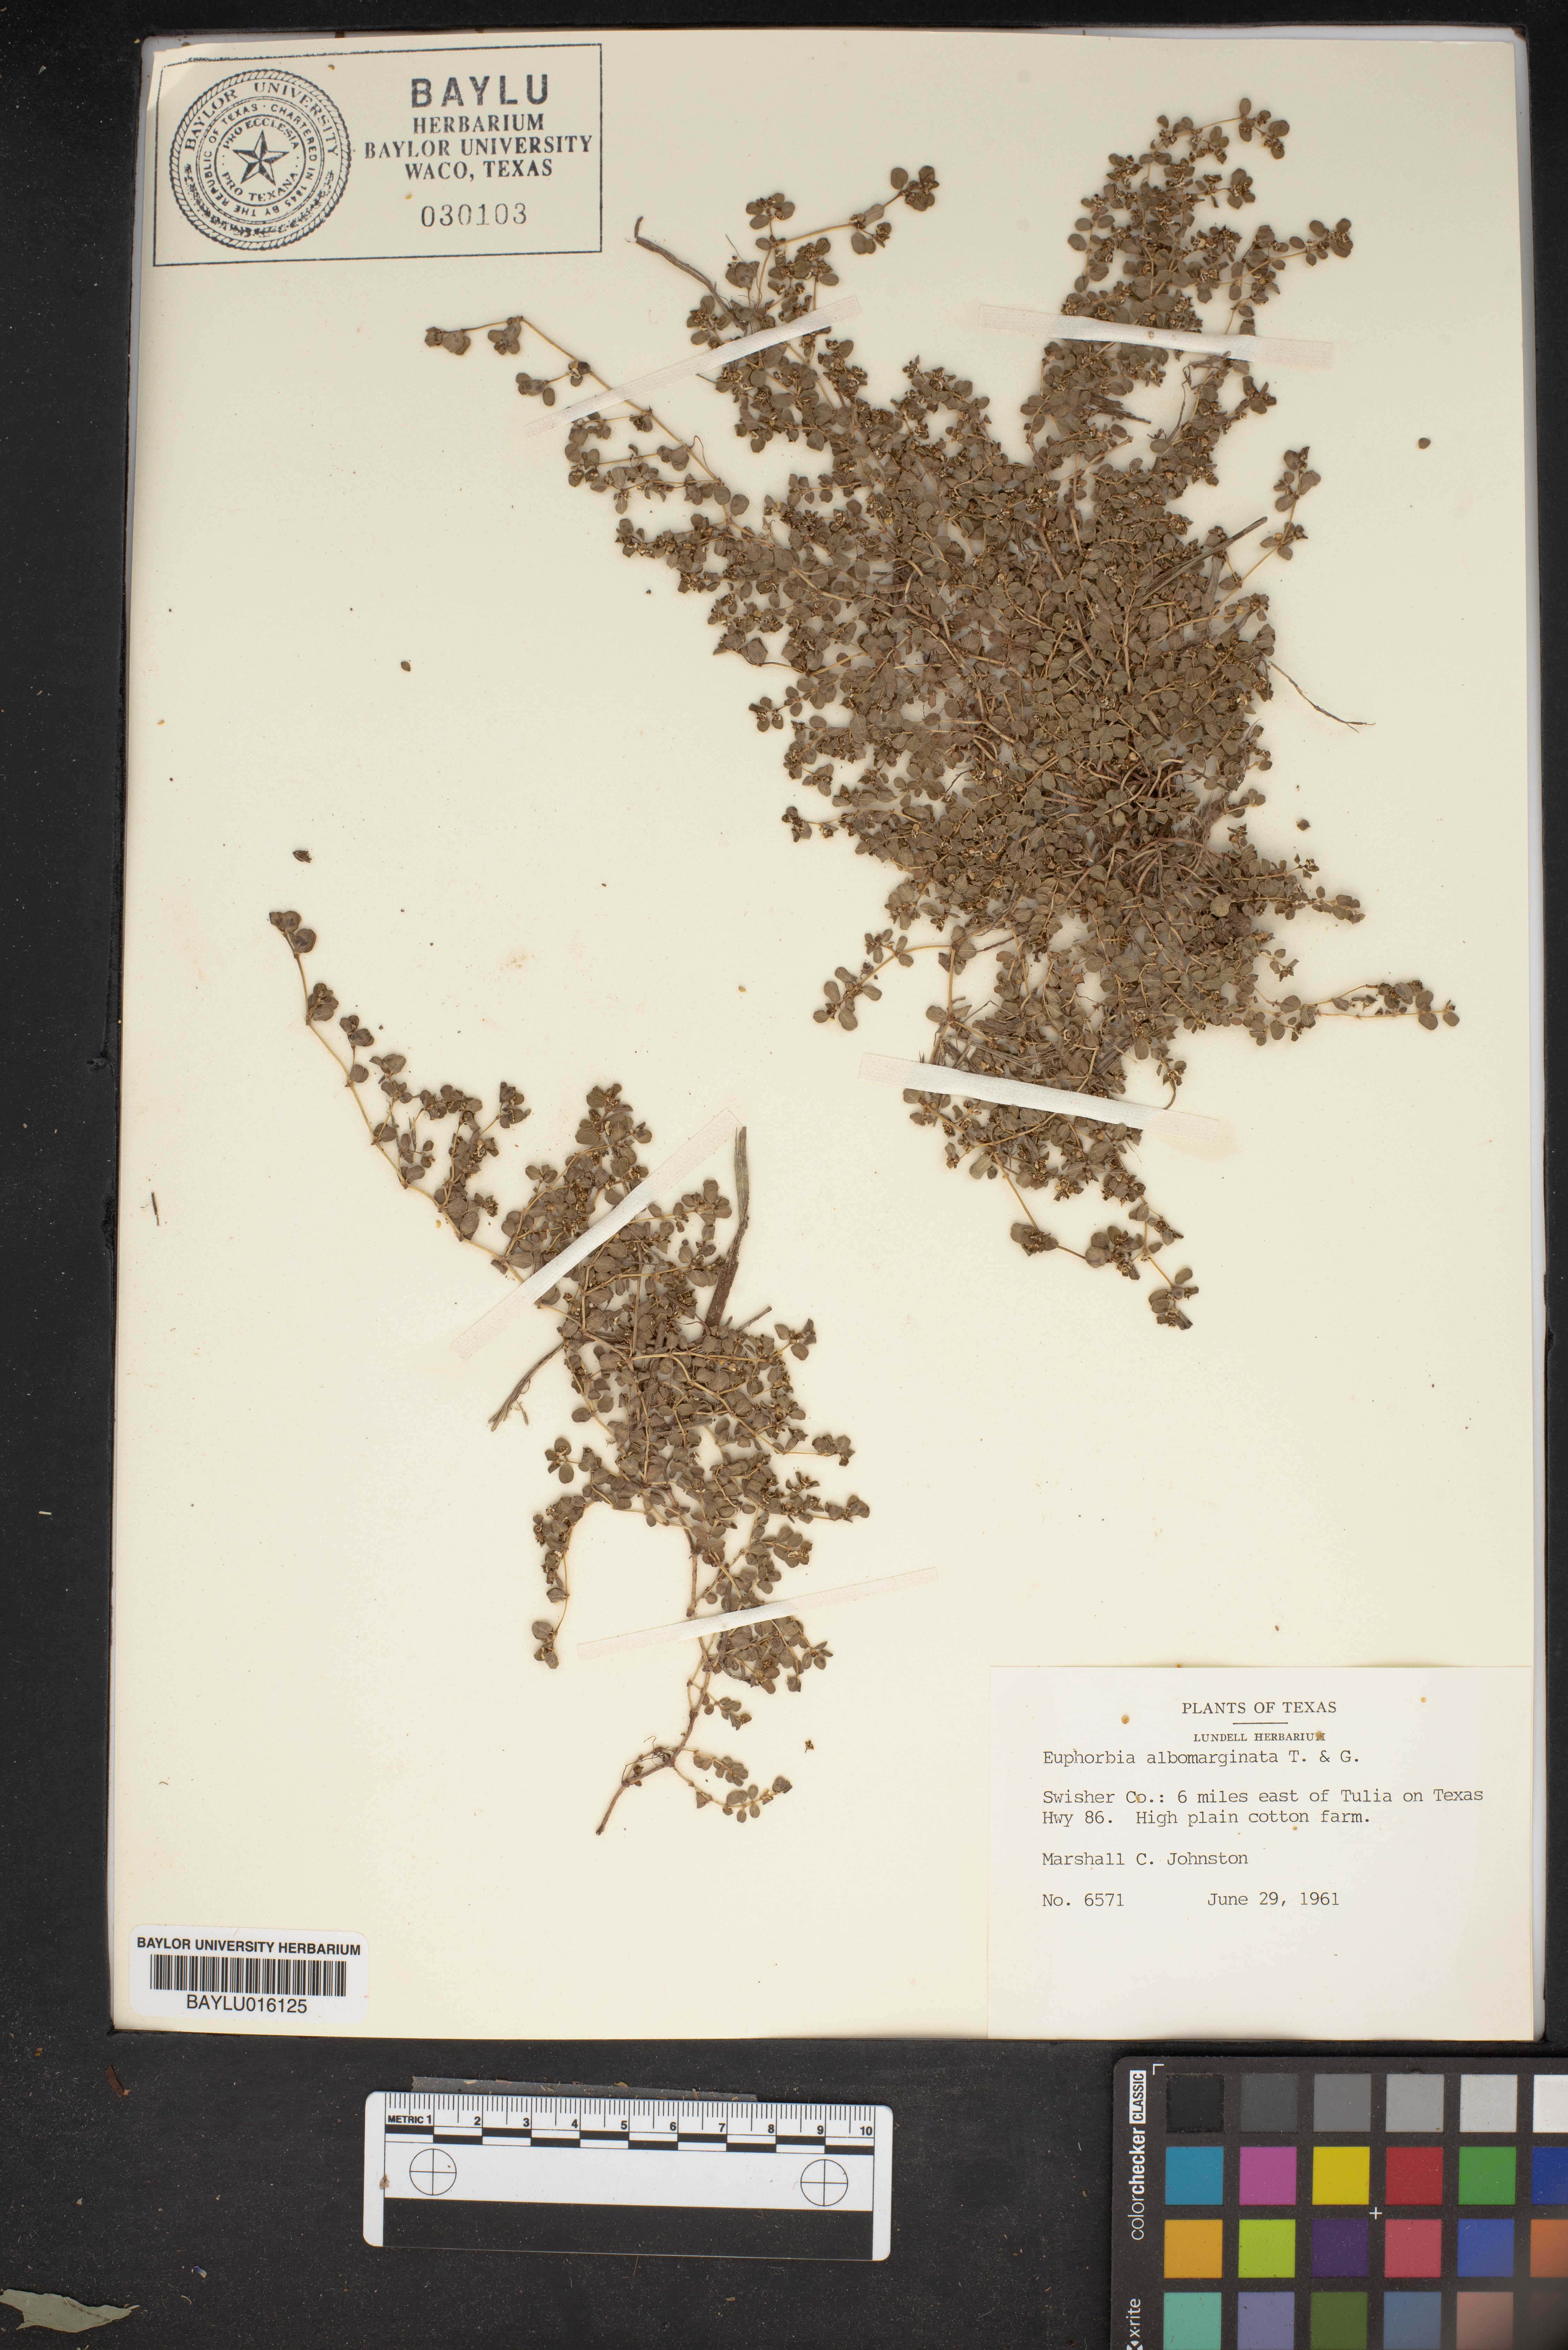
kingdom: Plantae
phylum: Tracheophyta
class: Magnoliopsida
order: Malpighiales
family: Euphorbiaceae
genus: Euphorbia
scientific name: Euphorbia albomarginata
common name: Whitemargin sandmat
